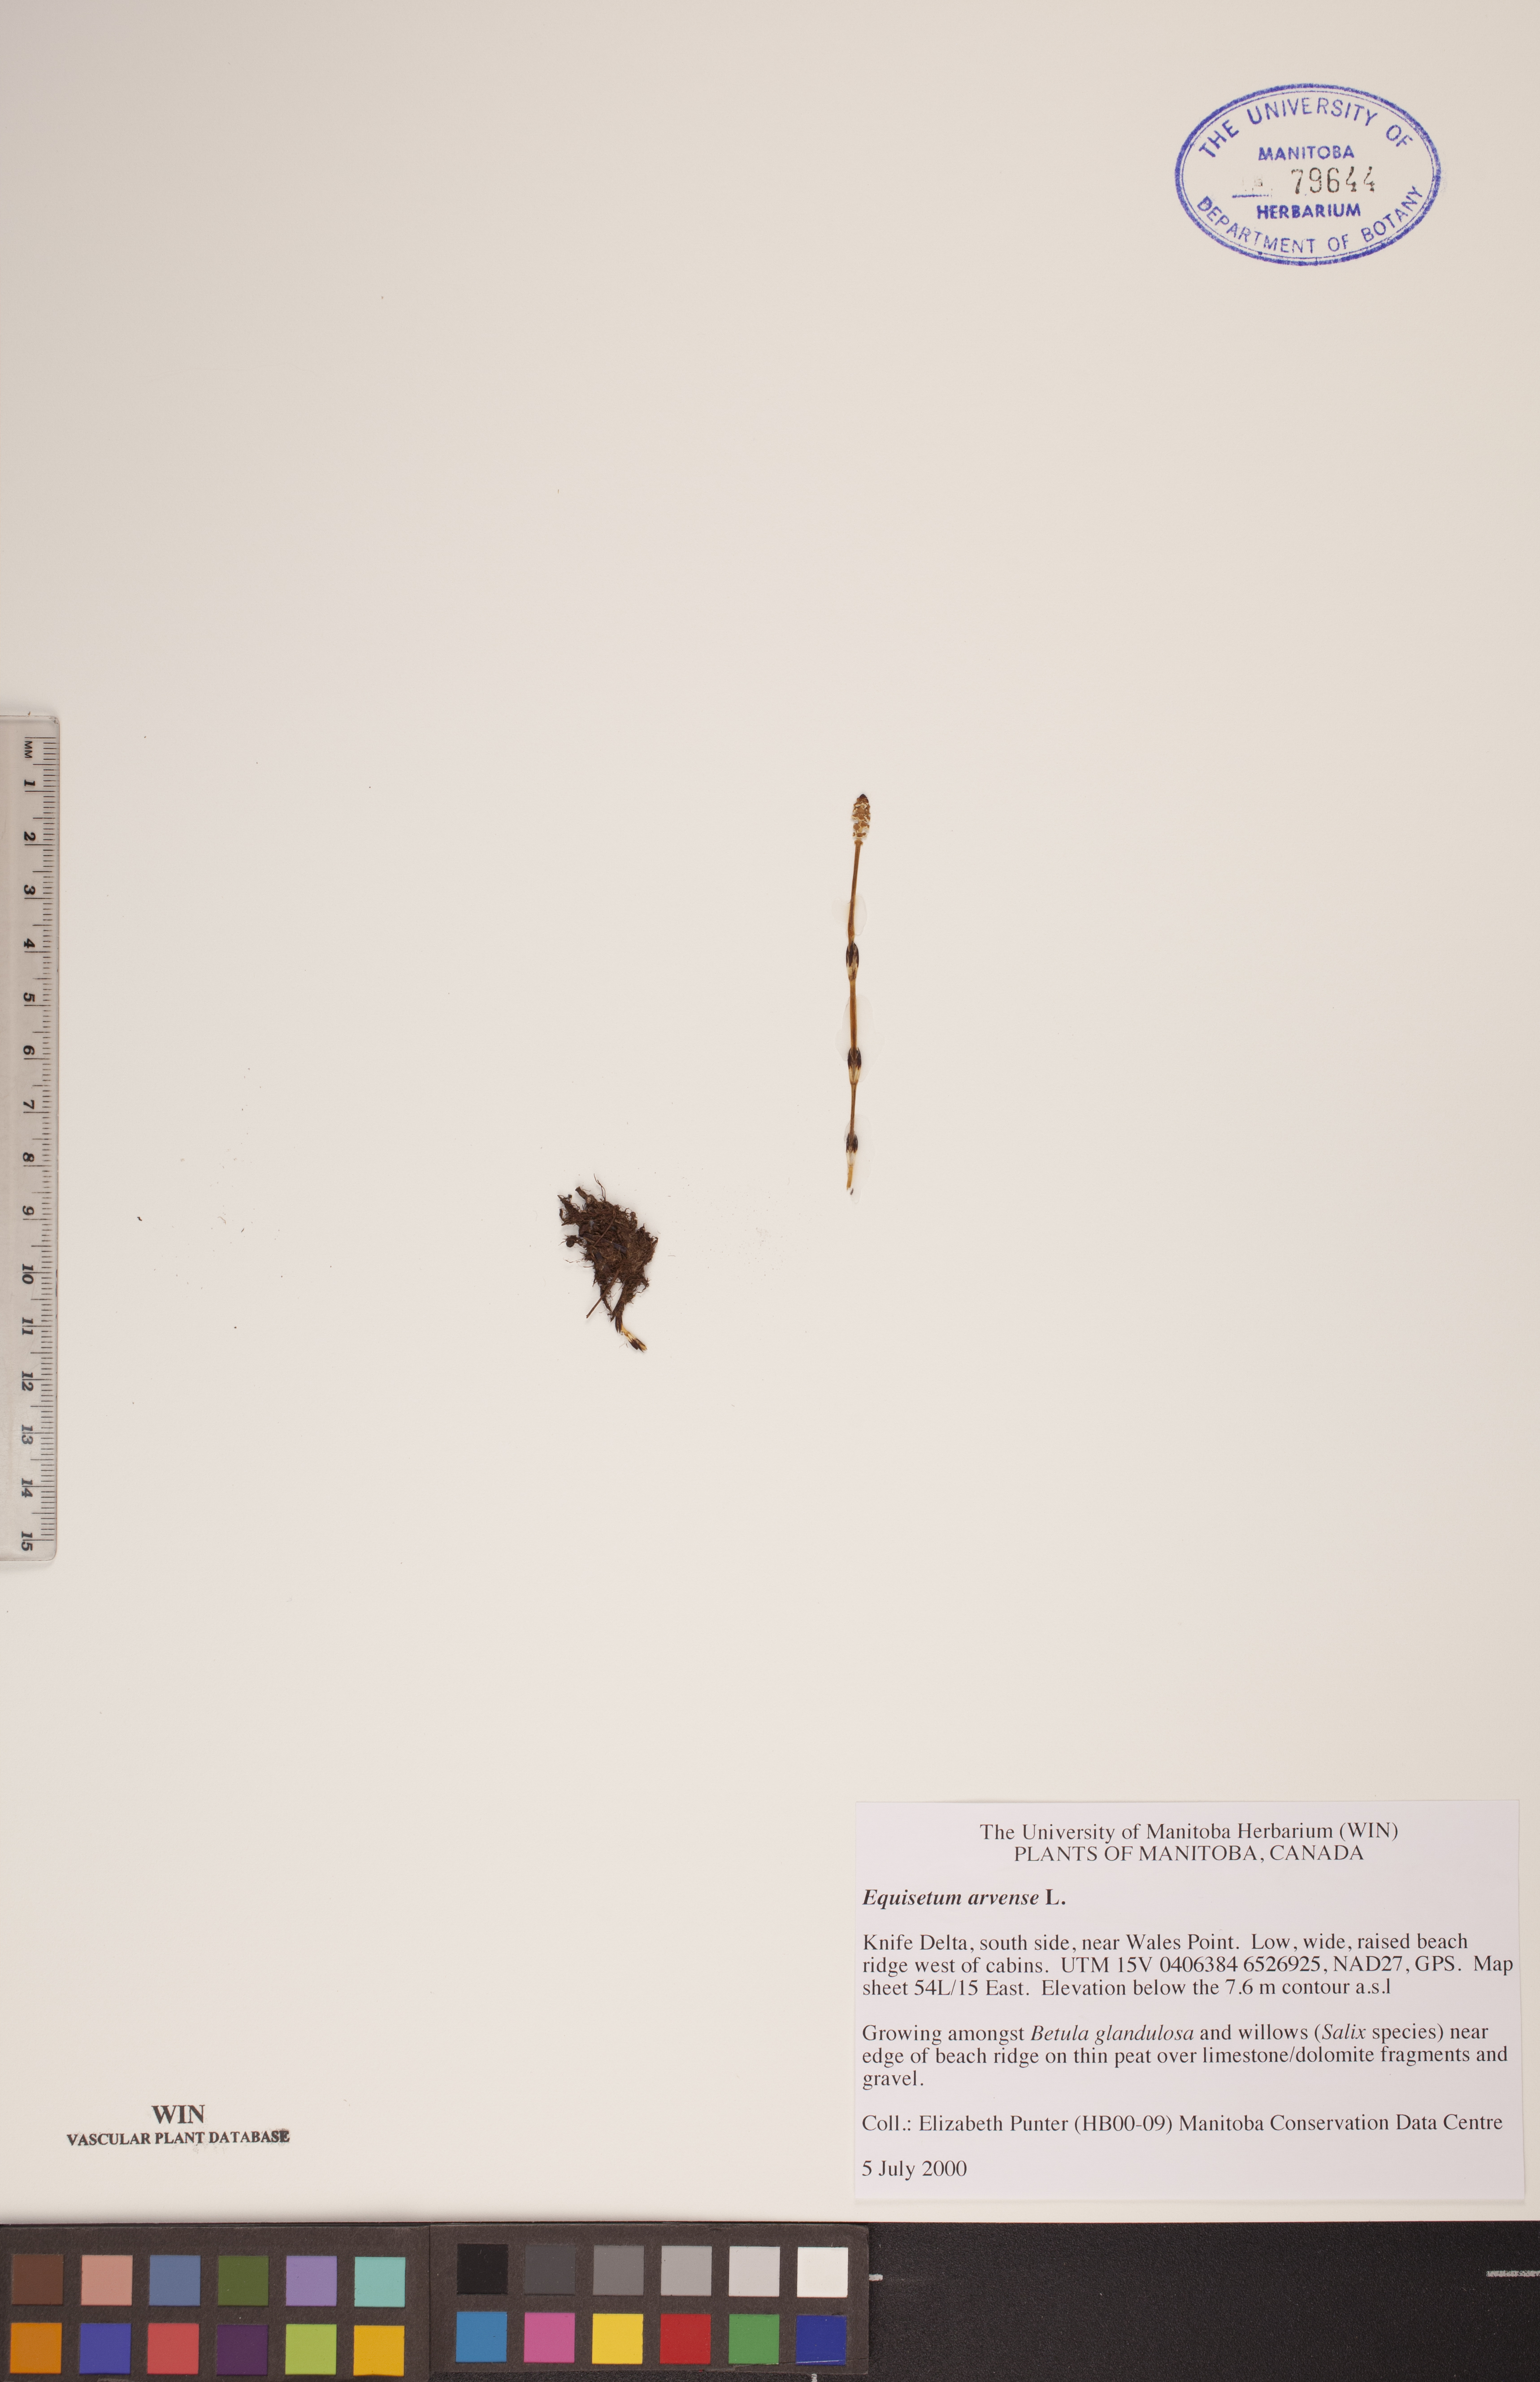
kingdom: Plantae
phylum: Tracheophyta
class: Polypodiopsida
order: Equisetales
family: Equisetaceae
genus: Equisetum
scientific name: Equisetum arvense
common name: Field horsetail
